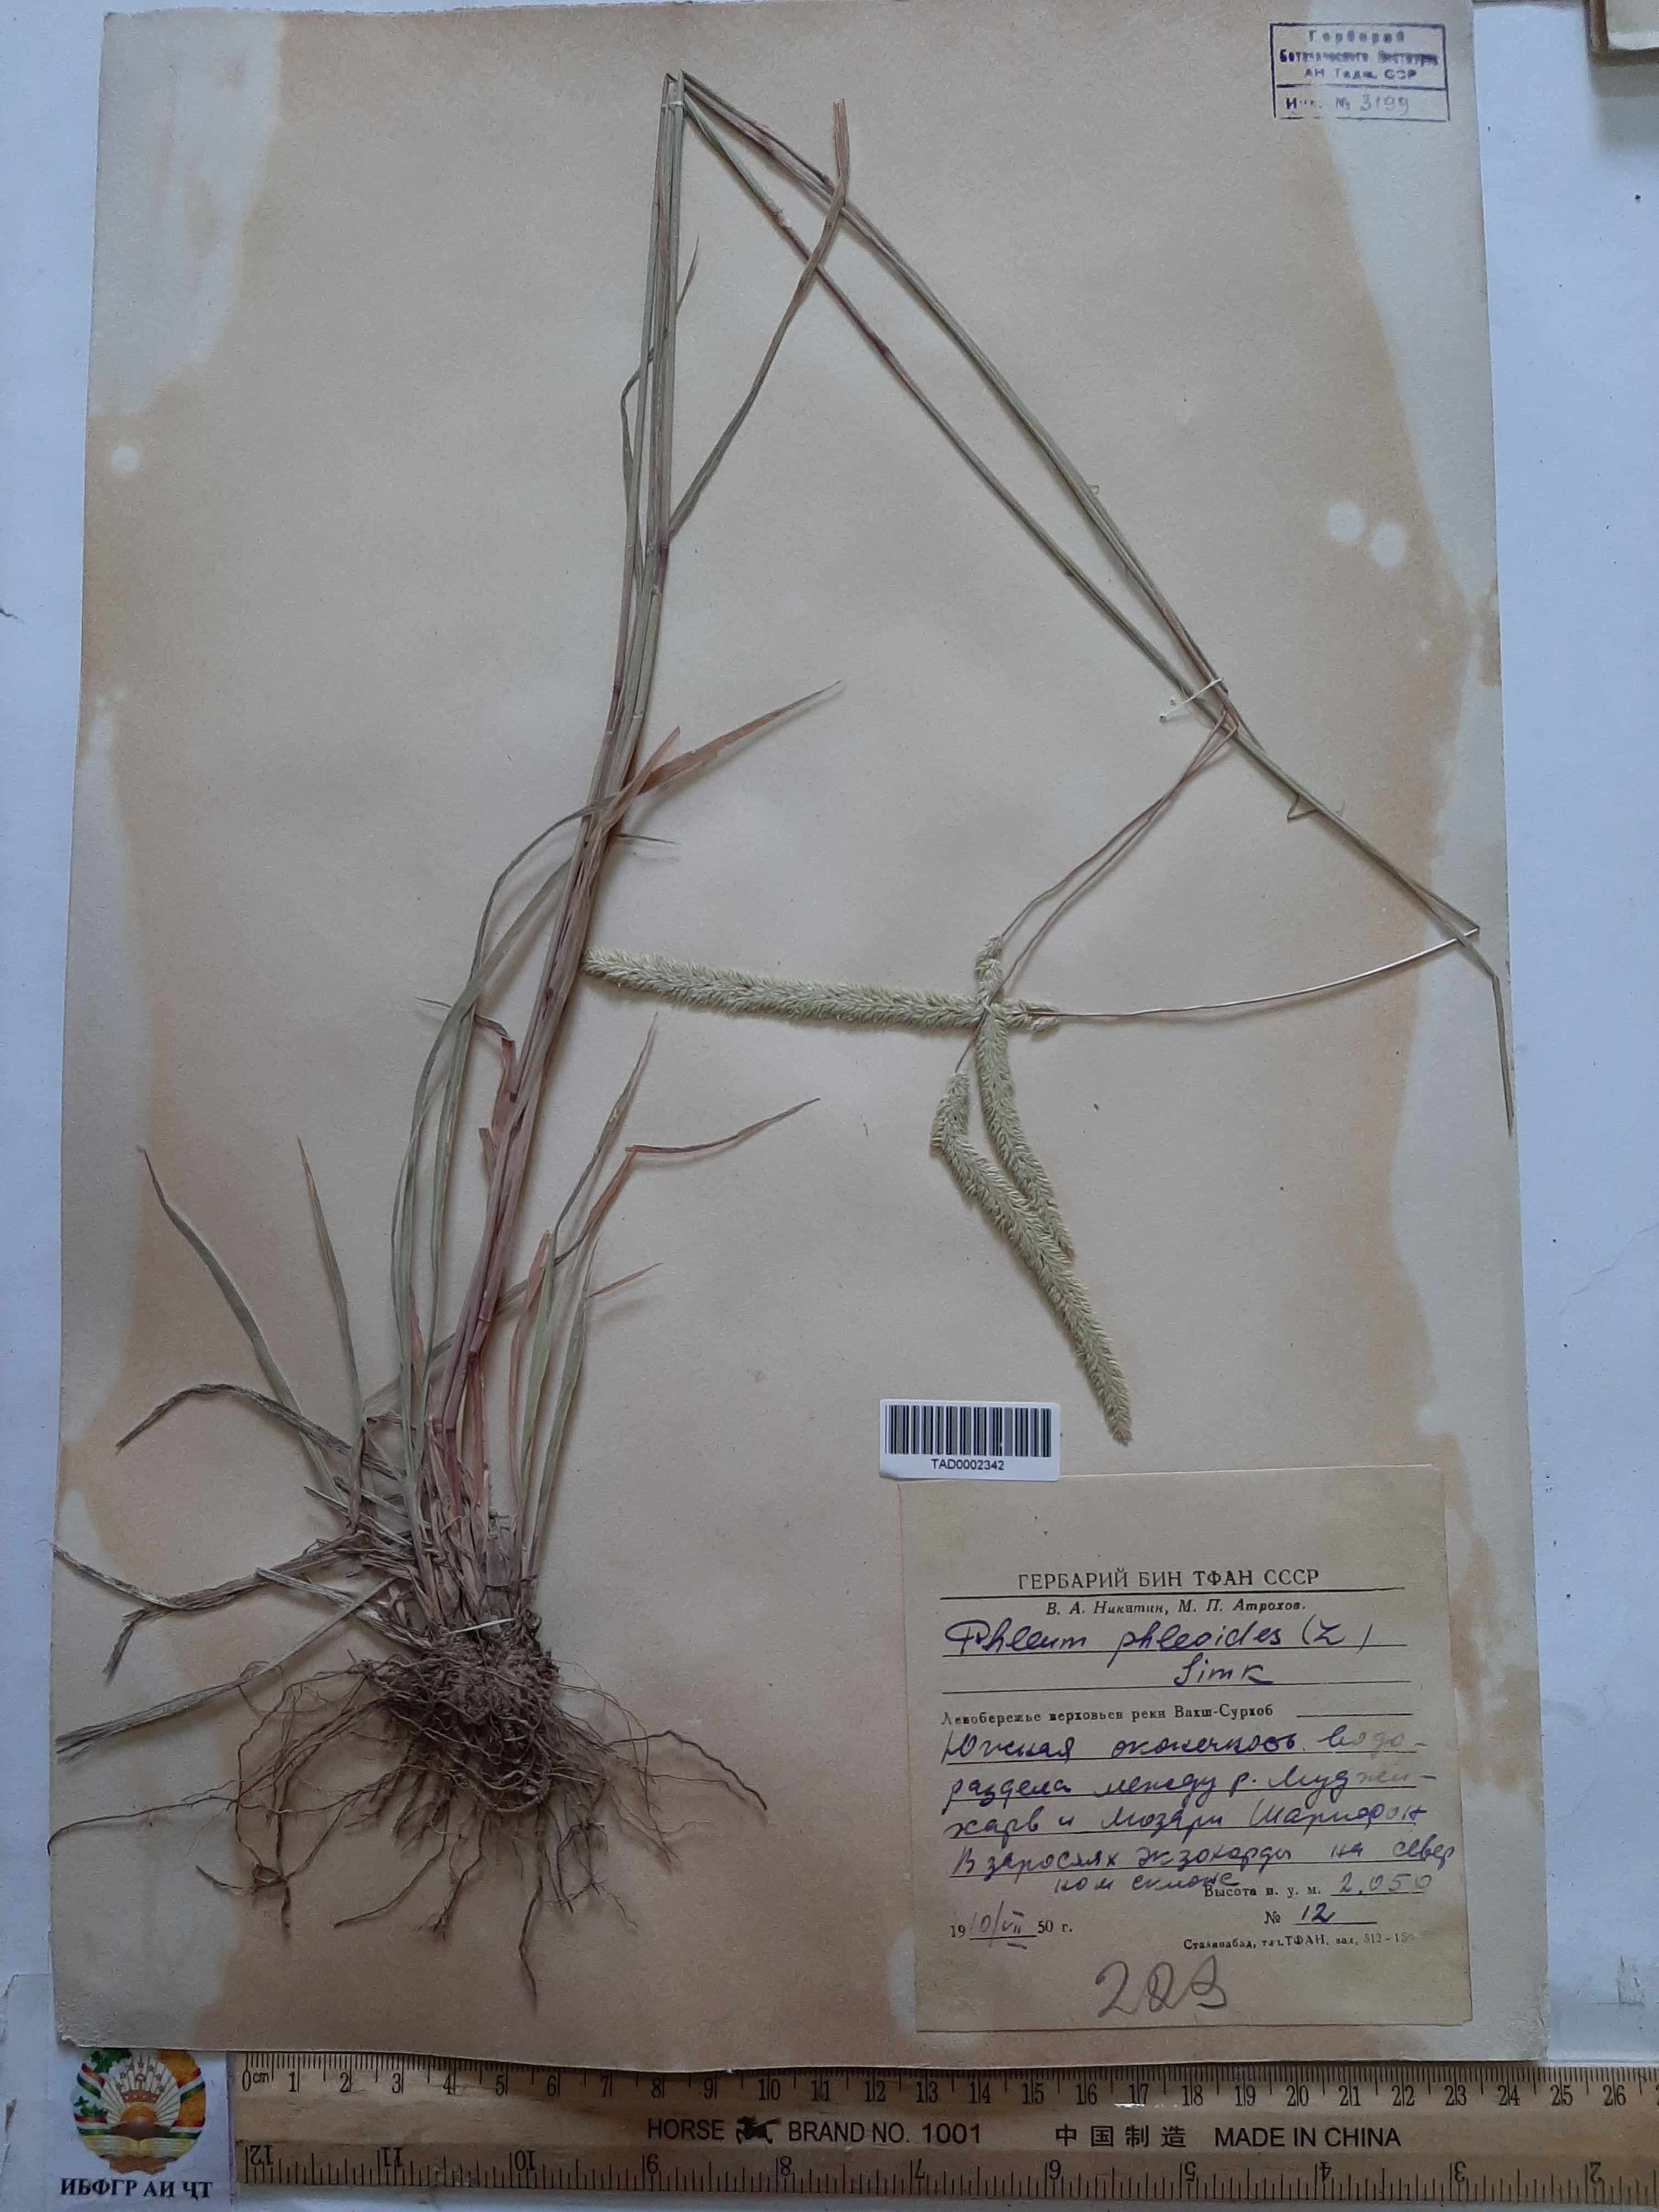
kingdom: Plantae
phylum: Tracheophyta
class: Liliopsida
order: Poales
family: Poaceae
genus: Phleum
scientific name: Phleum phleoides
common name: Purple-stem cat's-tail
